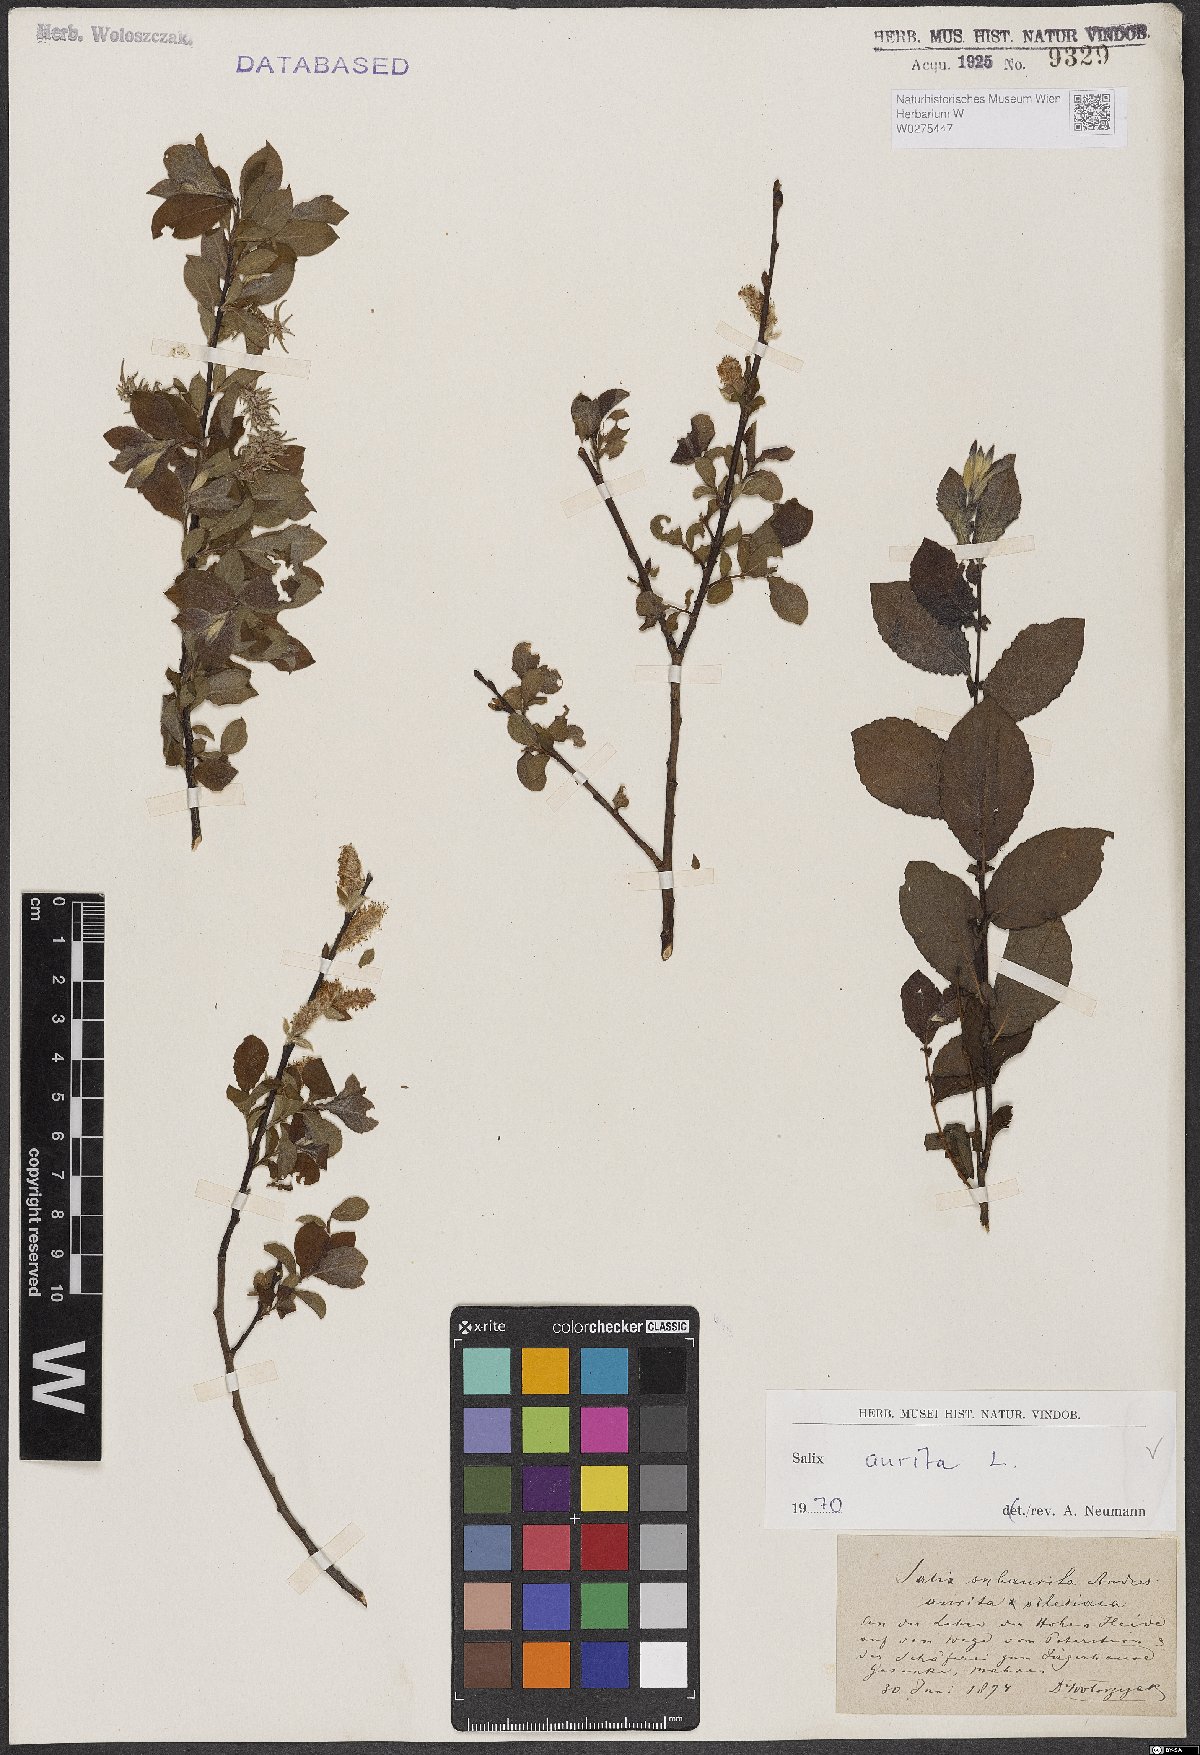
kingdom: Plantae
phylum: Tracheophyta
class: Magnoliopsida
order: Malpighiales
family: Salicaceae
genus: Salix
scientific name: Salix aurita
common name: Eared willow
